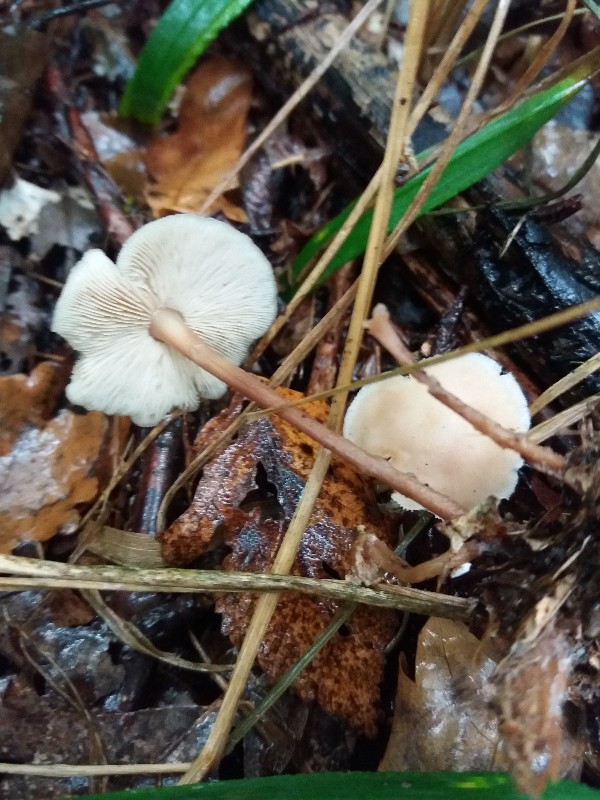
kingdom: Fungi
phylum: Basidiomycota
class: Agaricomycetes
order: Agaricales
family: Omphalotaceae
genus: Gymnopus
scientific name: Gymnopus dryophilus
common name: løv-fladhat
